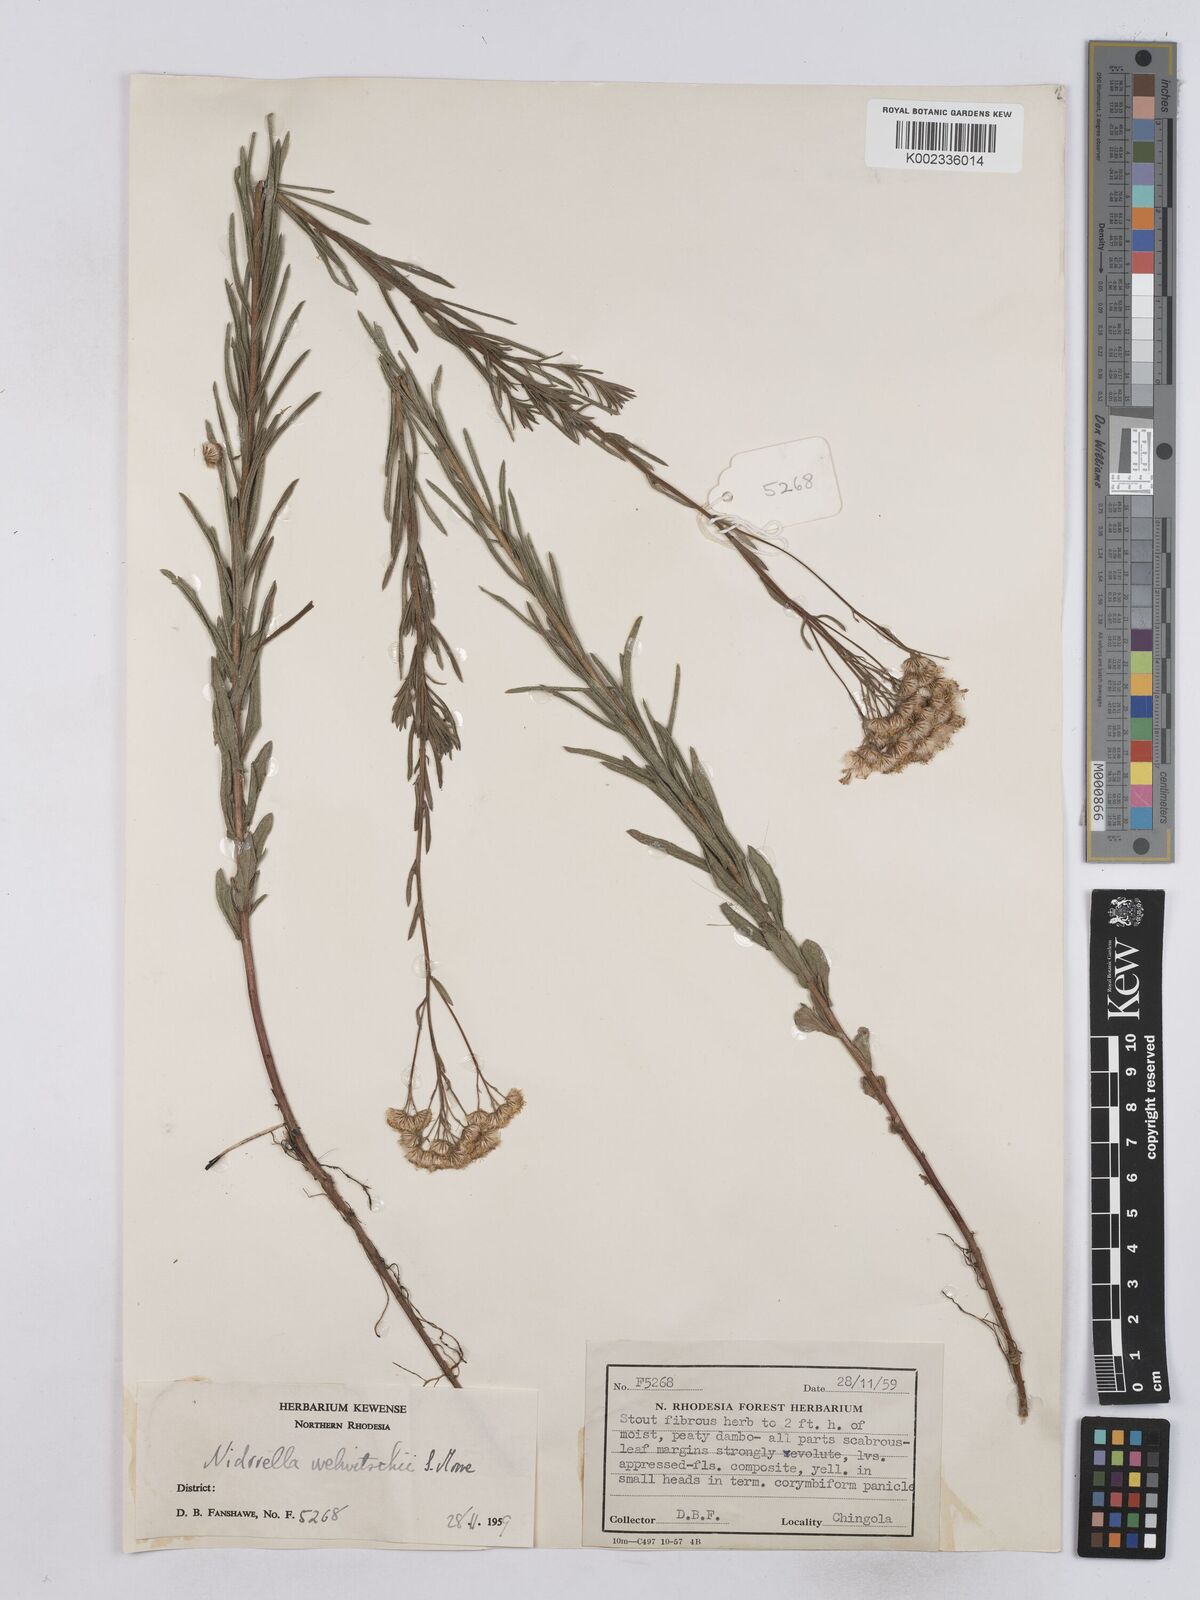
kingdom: Plantae
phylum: Tracheophyta
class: Magnoliopsida
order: Asterales
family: Asteraceae
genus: Nidorella
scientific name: Nidorella welwitschii
